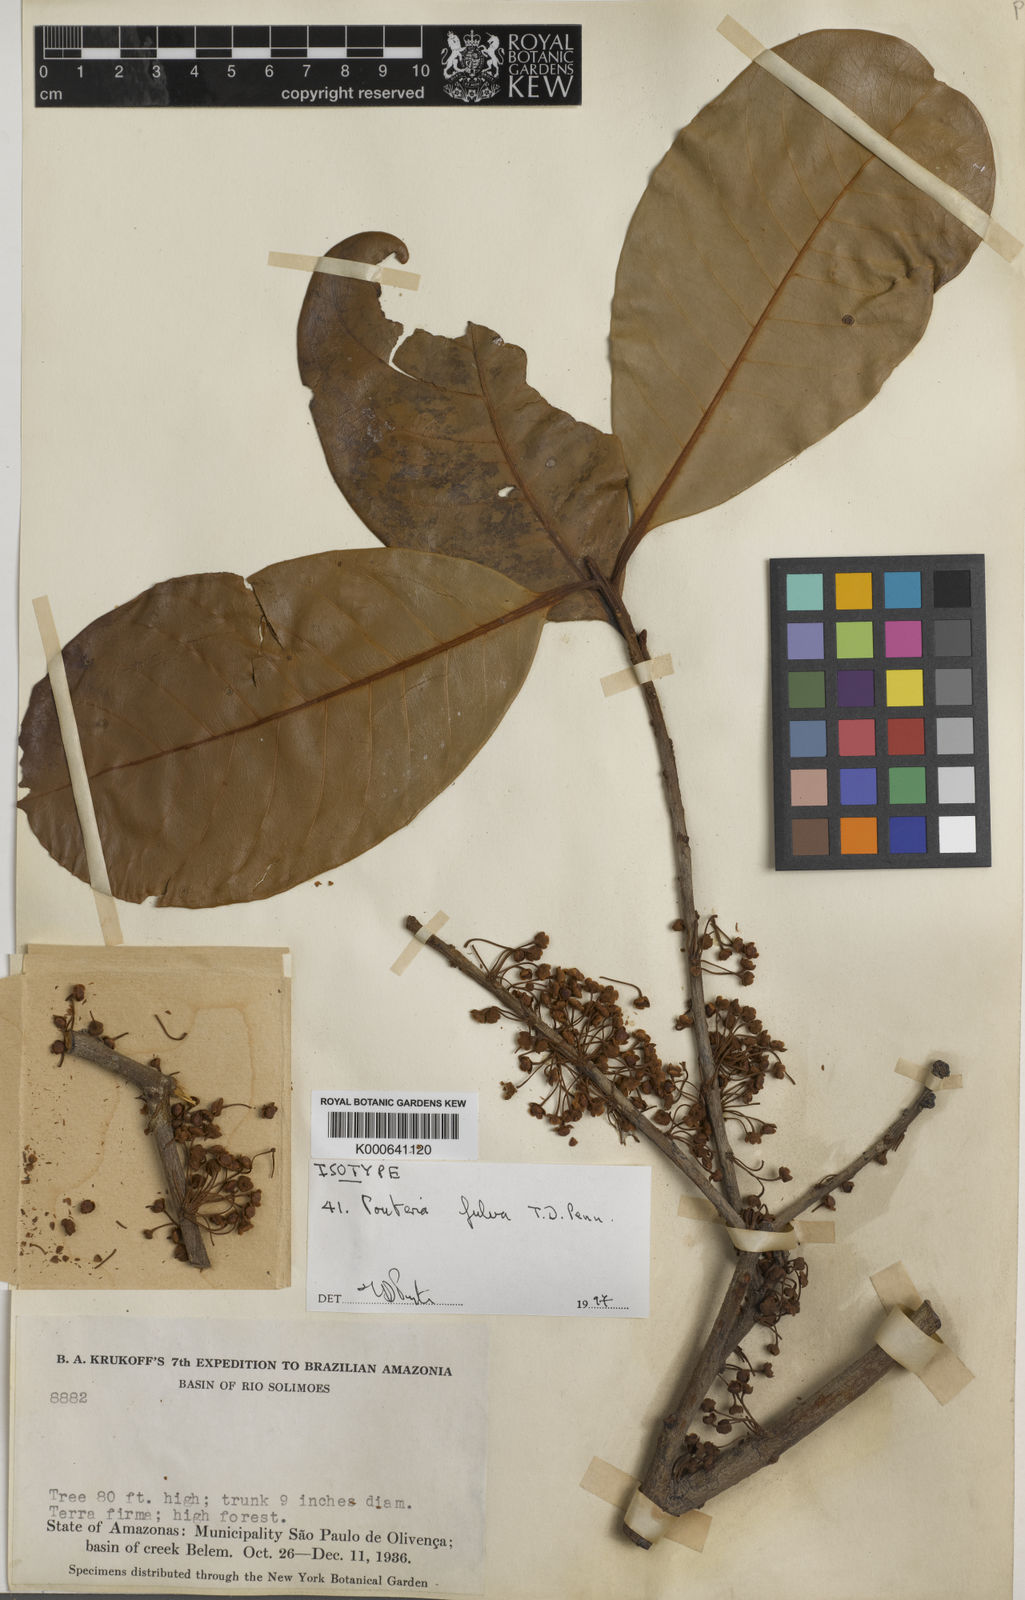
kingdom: Plantae
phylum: Tracheophyta
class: Magnoliopsida
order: Ericales
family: Sapotaceae
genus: Pouteria
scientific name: Pouteria fulva
